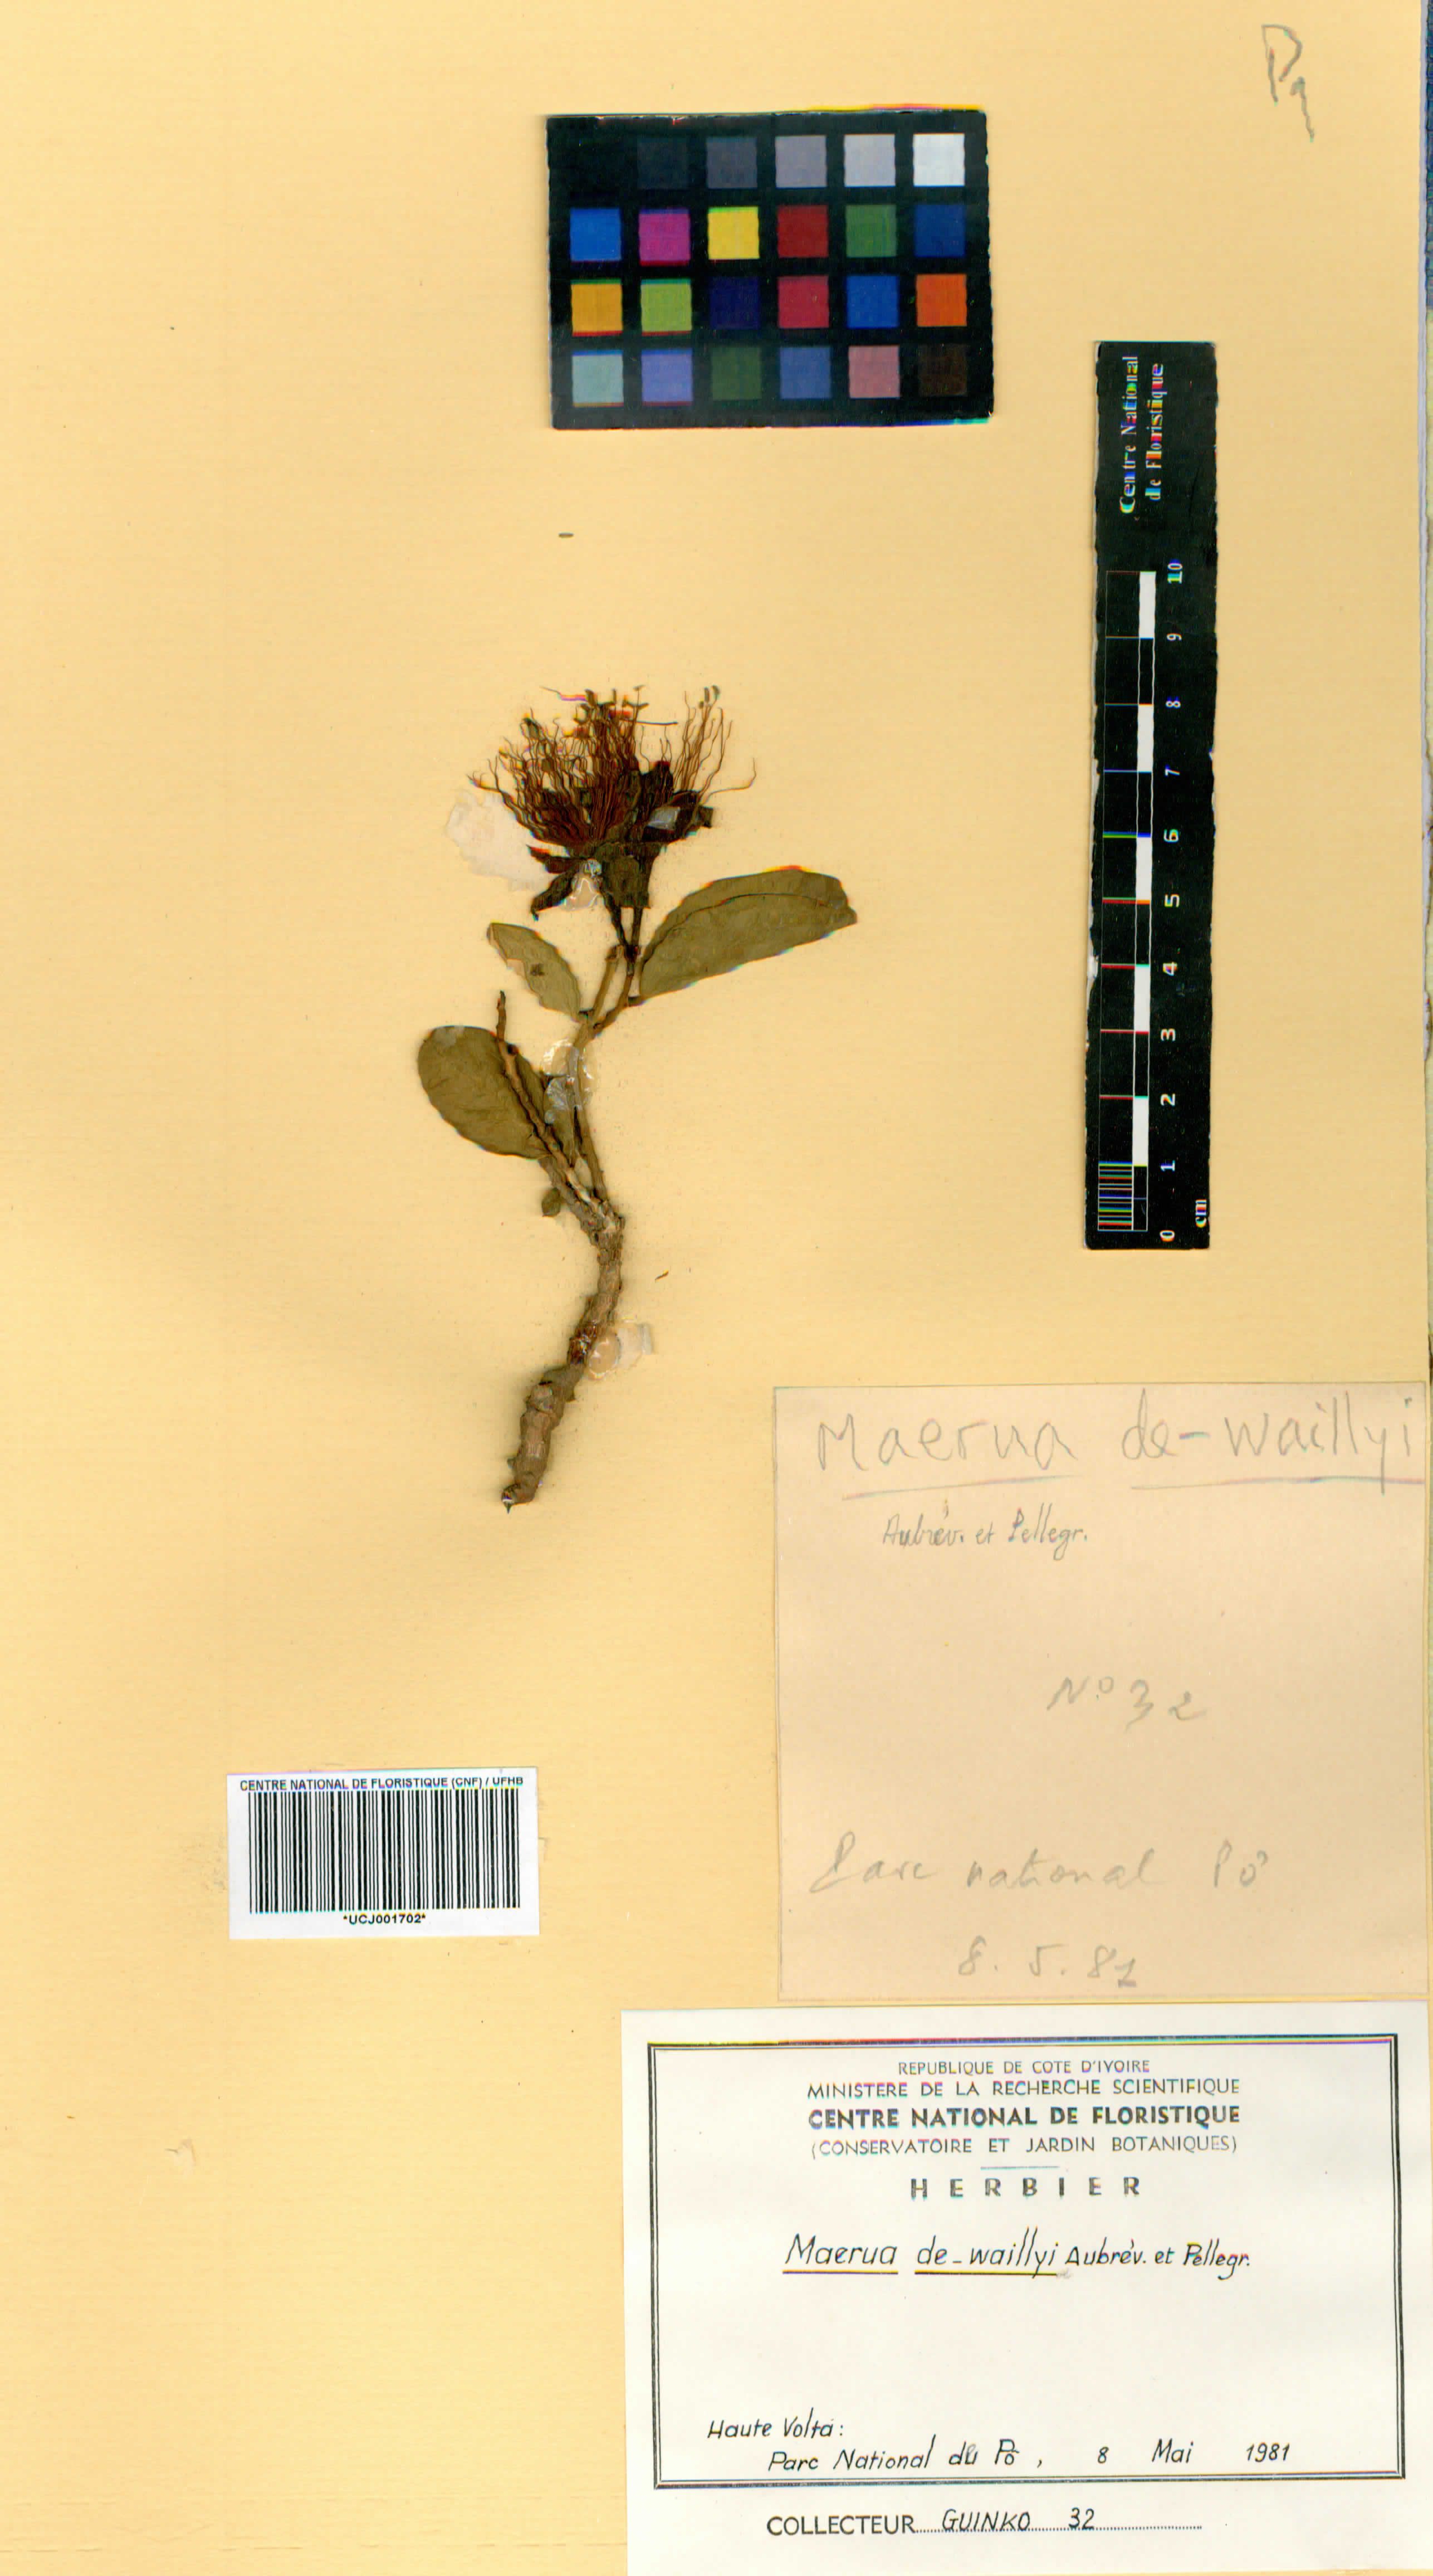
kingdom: Plantae
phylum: Tracheophyta
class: Magnoliopsida
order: Brassicales
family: Capparaceae
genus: Maerua
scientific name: Maerua dewaillyi
